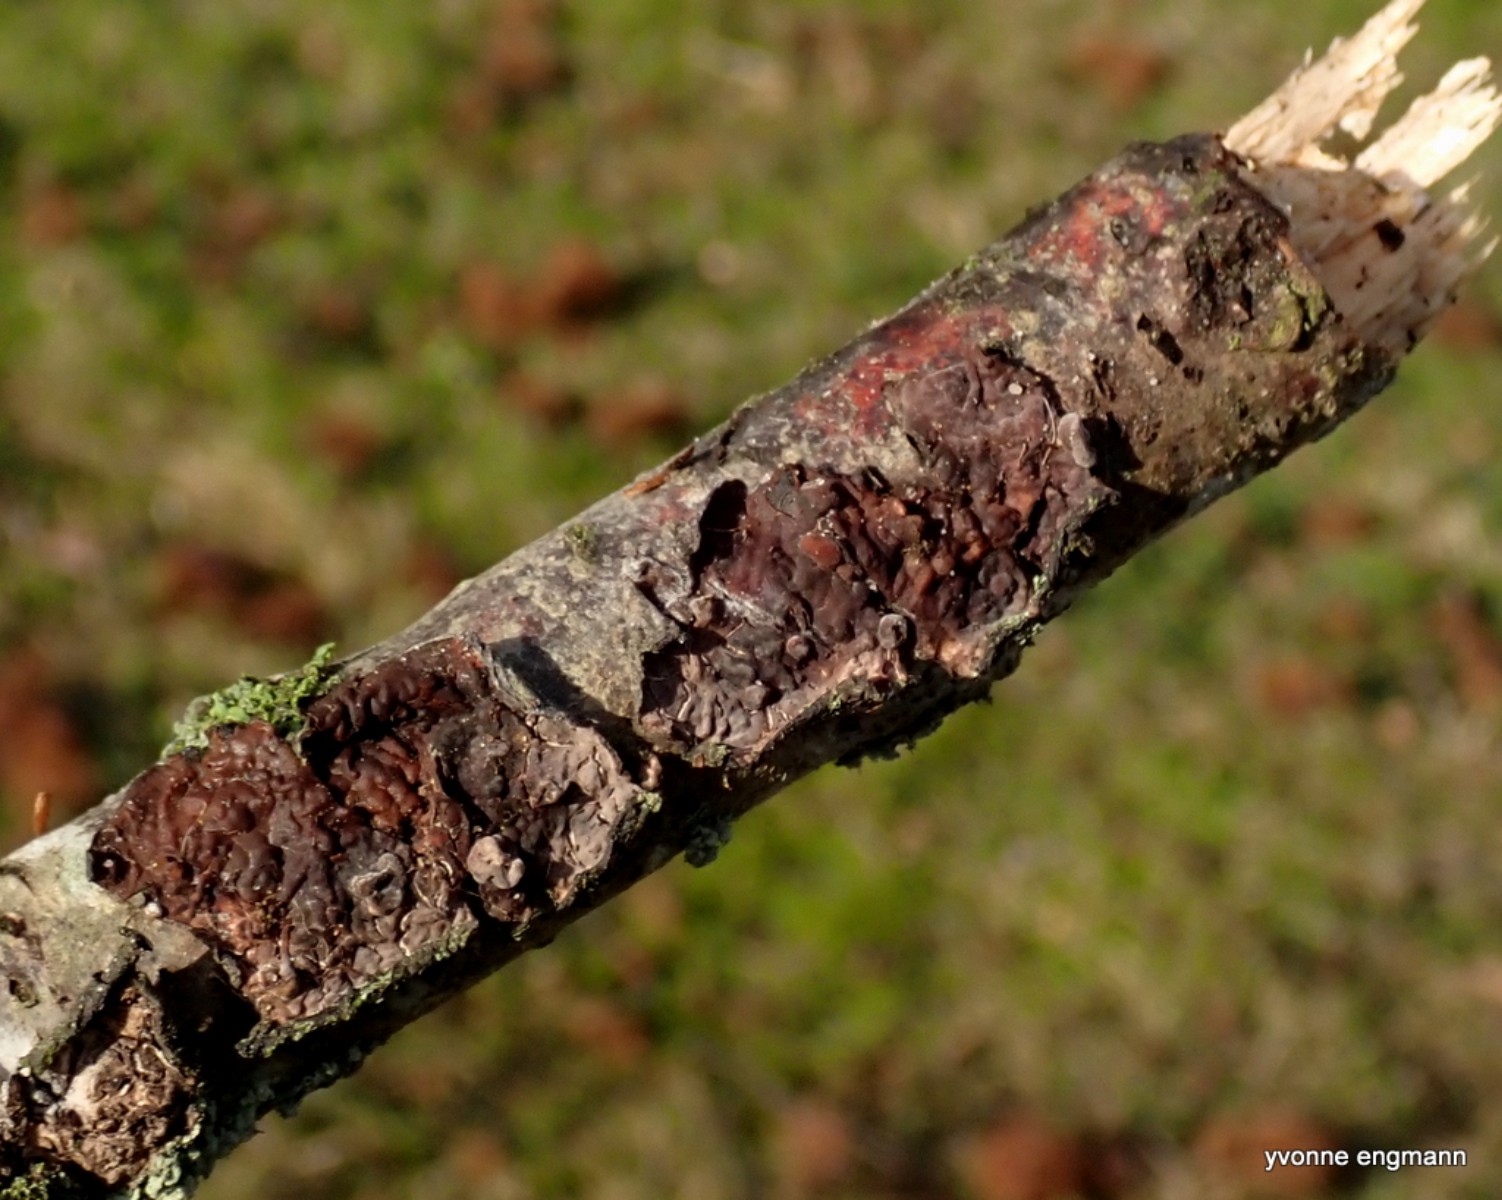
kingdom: Fungi
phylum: Basidiomycota
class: Agaricomycetes
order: Russulales
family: Peniophoraceae
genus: Peniophora
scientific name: Peniophora quercina
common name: ege-voksskind
